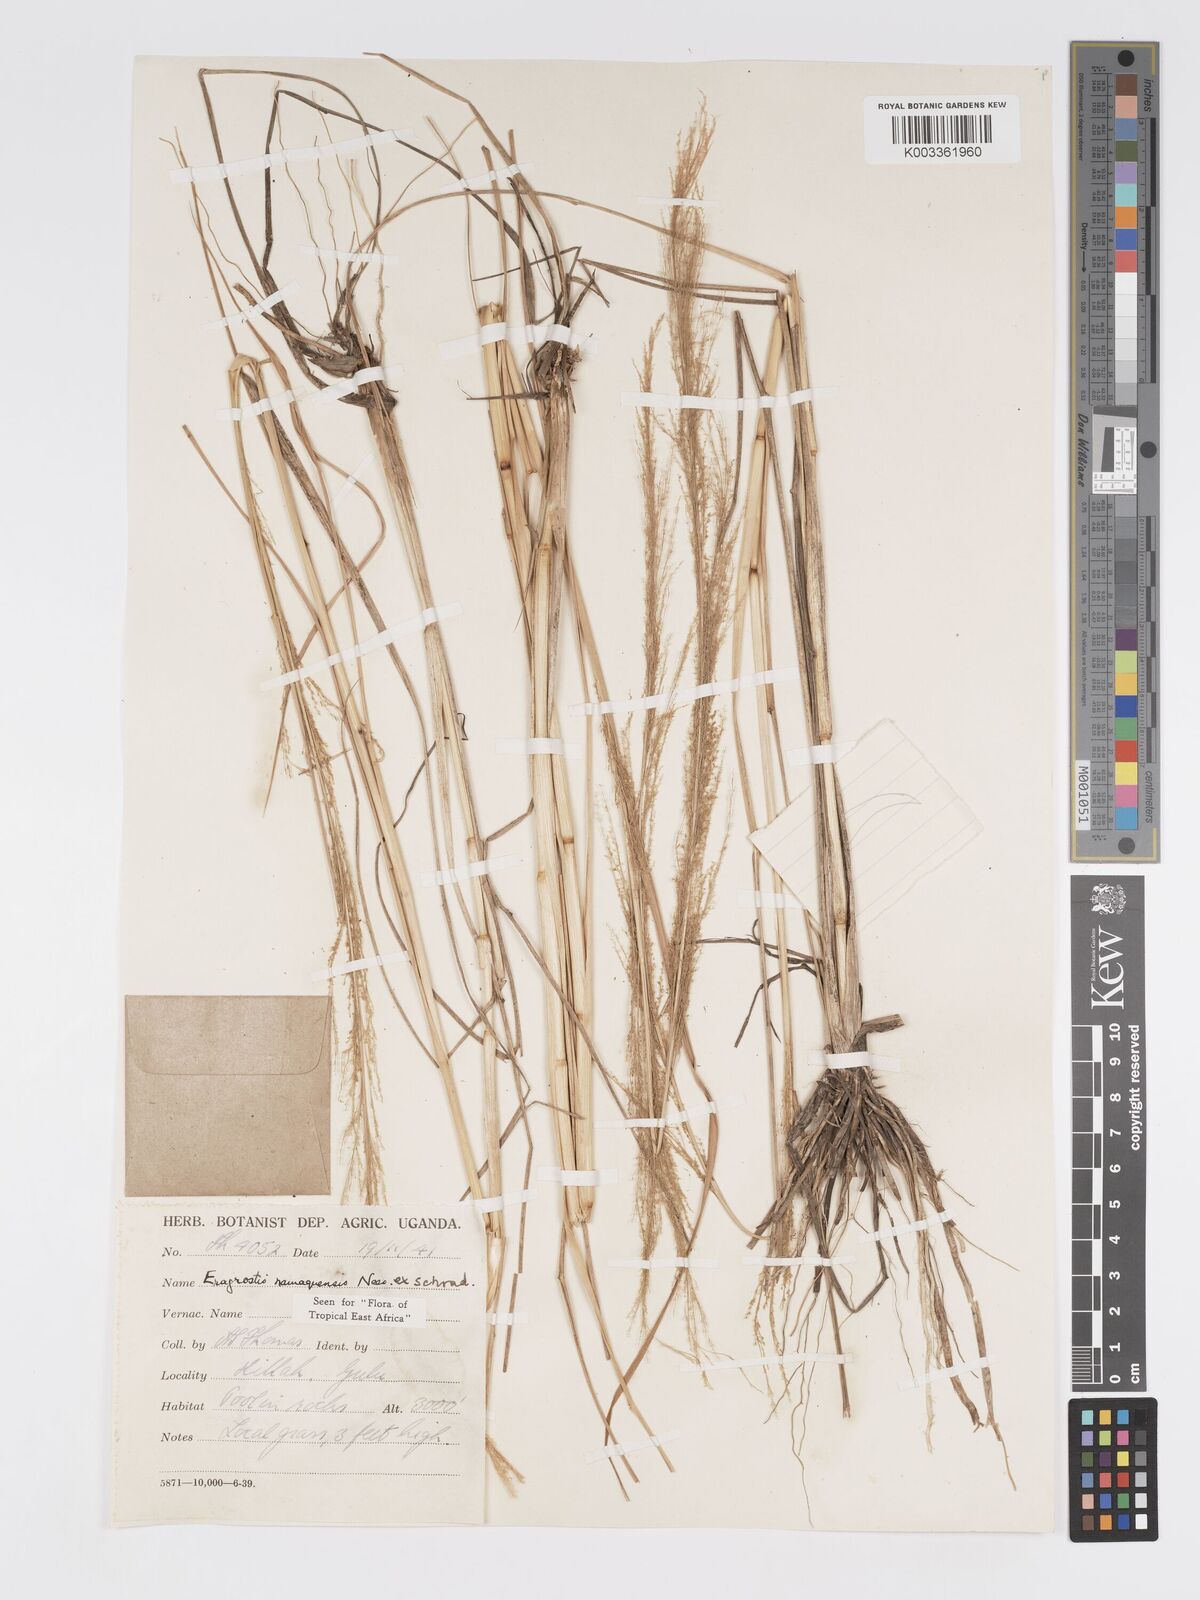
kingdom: Plantae
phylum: Tracheophyta
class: Liliopsida
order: Poales
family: Poaceae
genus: Eragrostis
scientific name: Eragrostis japonica
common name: Pond lovegrass
